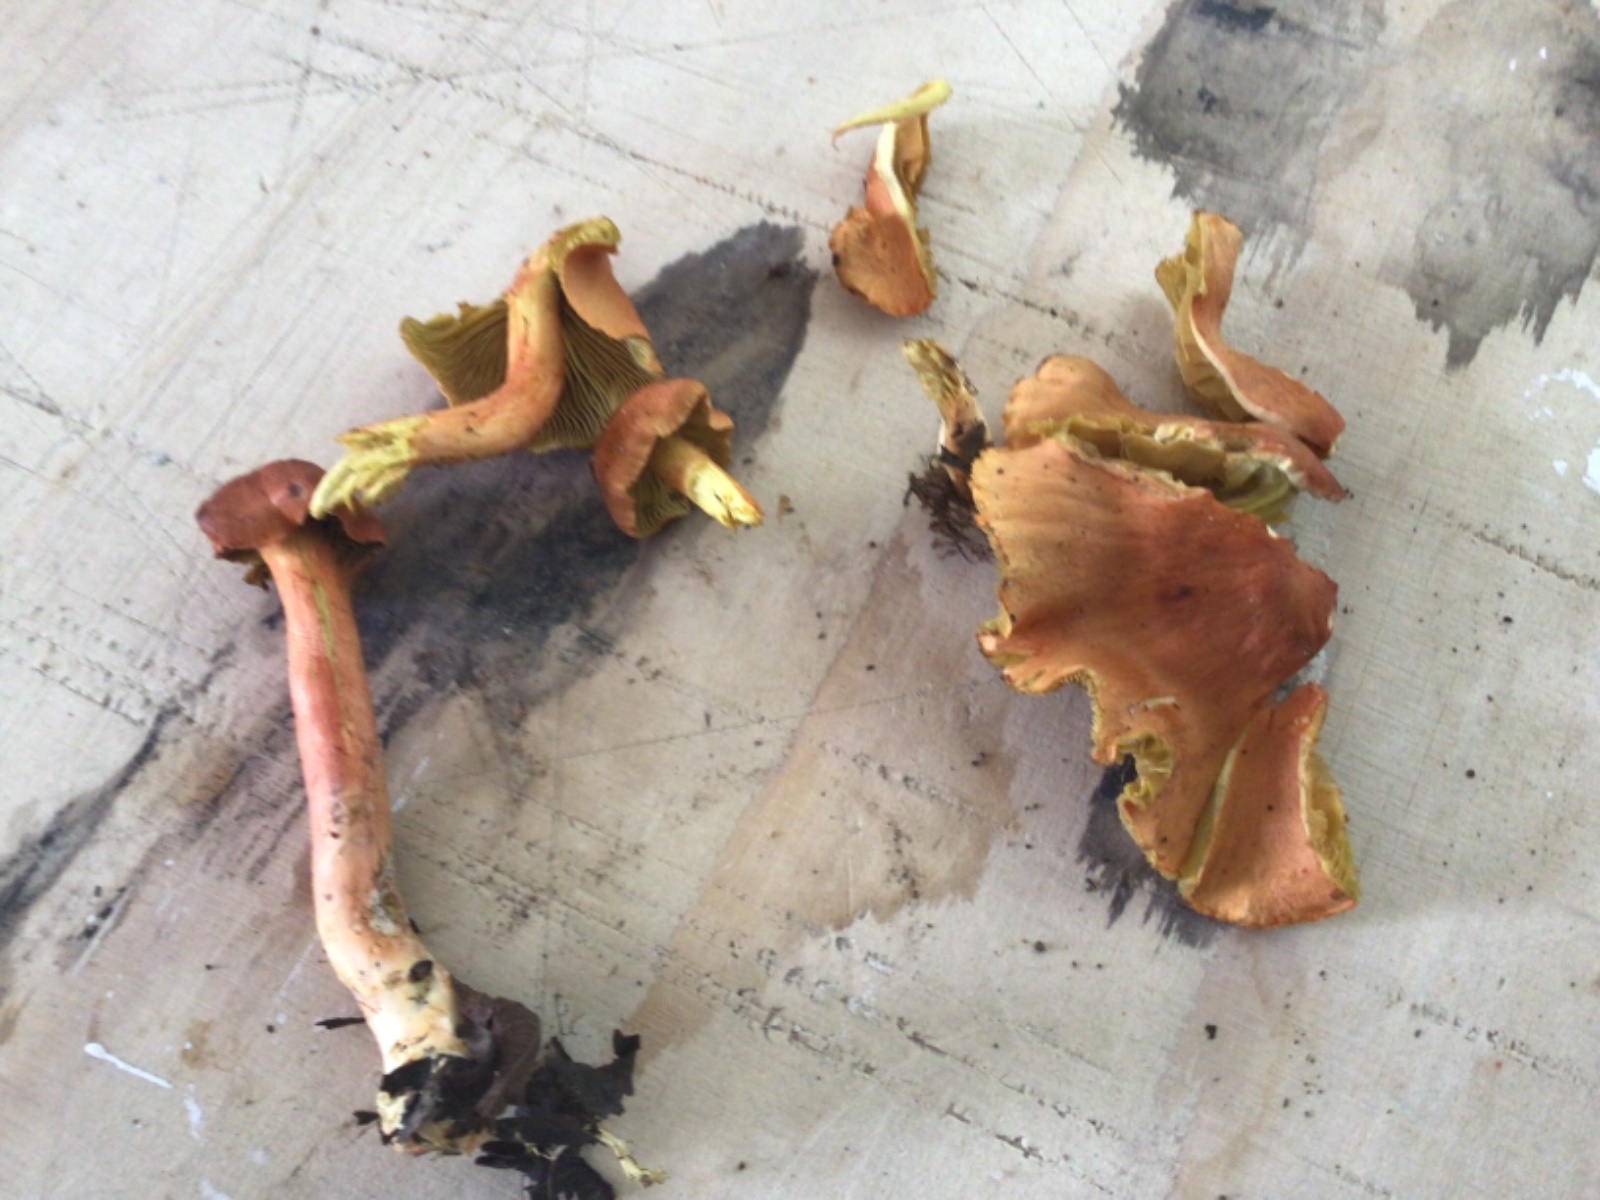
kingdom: Fungi
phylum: Basidiomycota
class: Agaricomycetes
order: Agaricales
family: Cortinariaceae
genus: Cortinarius
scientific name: Cortinarius uliginosus
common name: mose-slørhat
